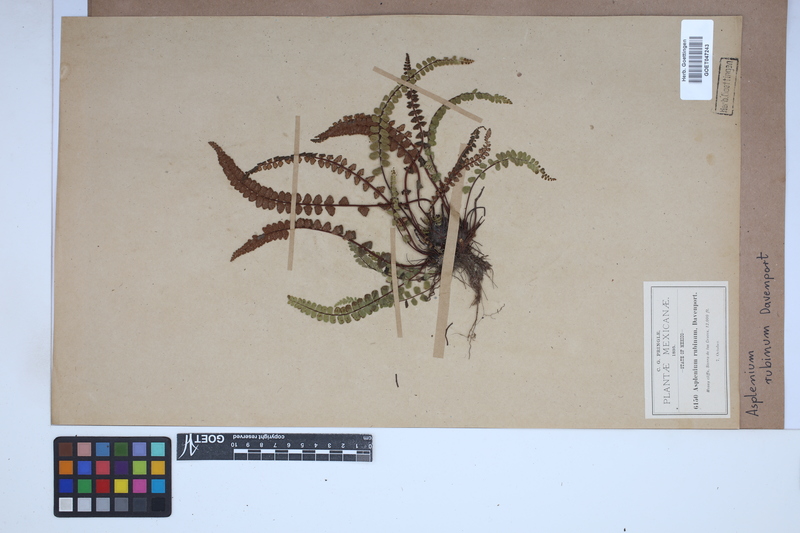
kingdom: Plantae
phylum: Tracheophyta
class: Polypodiopsida
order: Polypodiales
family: Aspleniaceae
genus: Asplenium
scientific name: Asplenium castaneum
